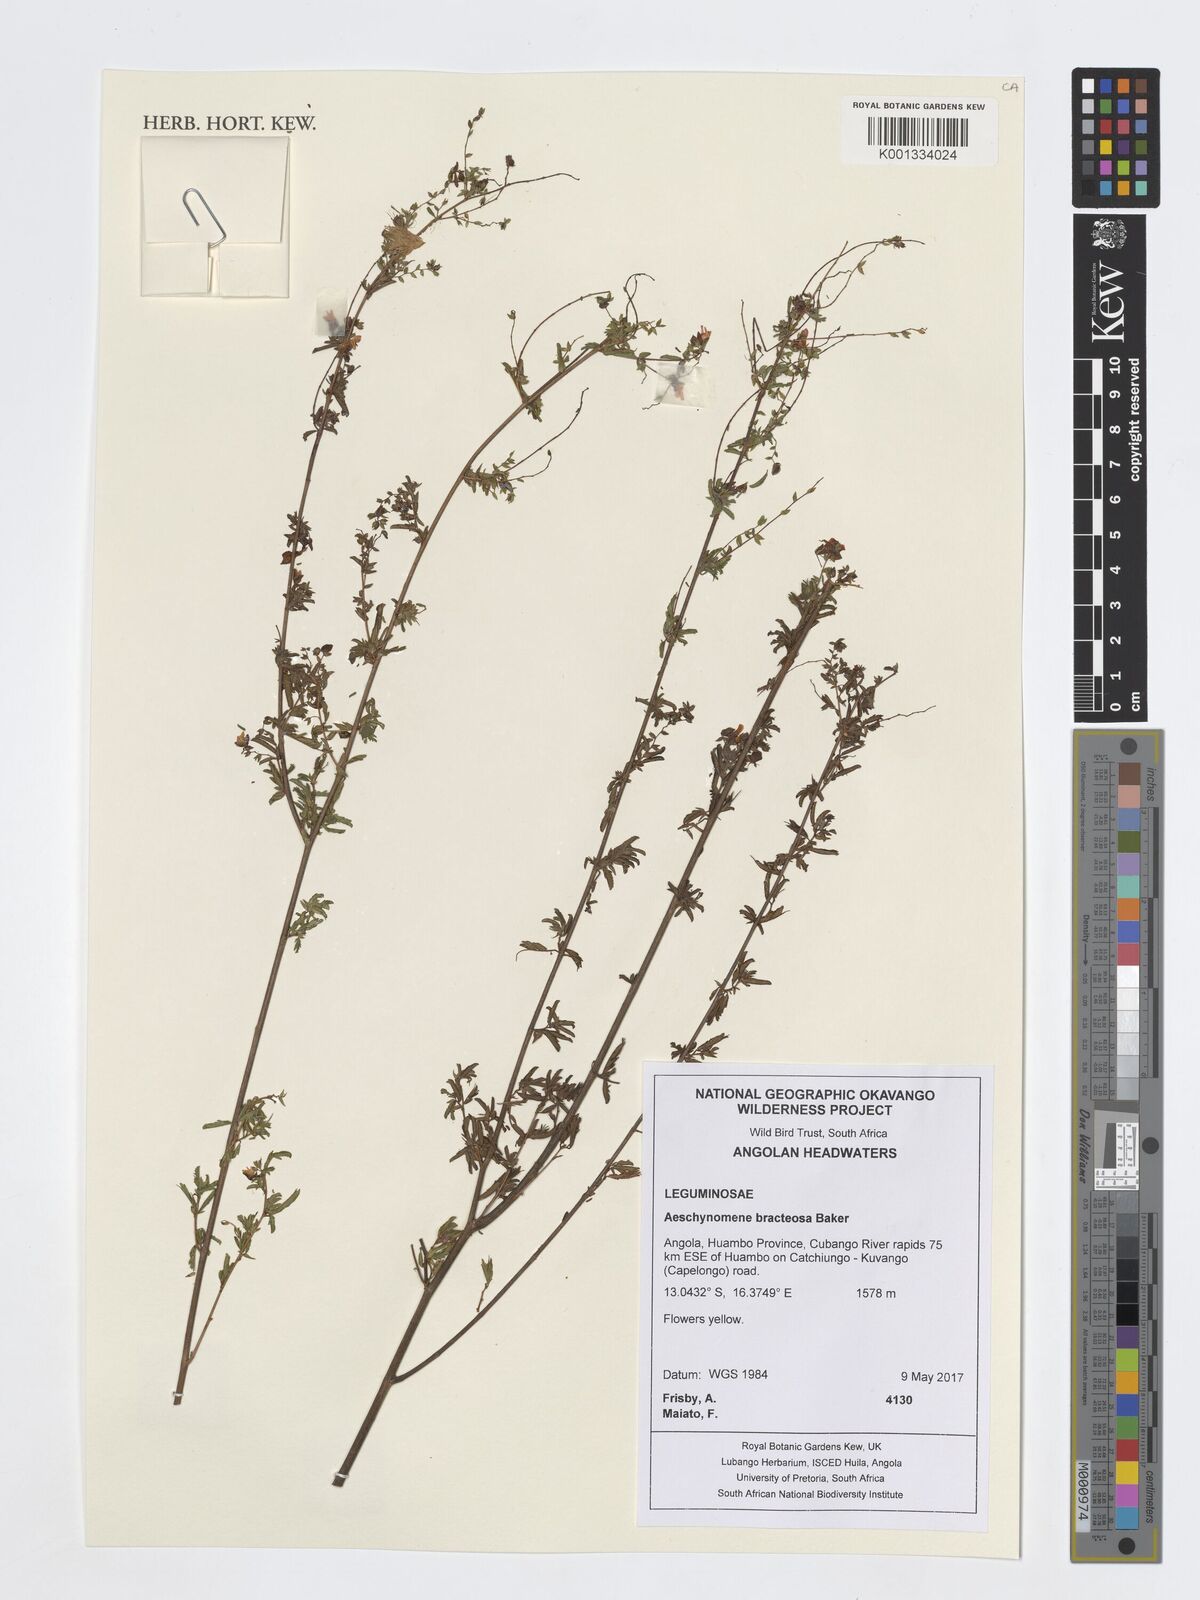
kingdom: Plantae
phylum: Tracheophyta
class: Magnoliopsida
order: Fabales
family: Fabaceae
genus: Aeschynomene
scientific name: Aeschynomene bracteosa
